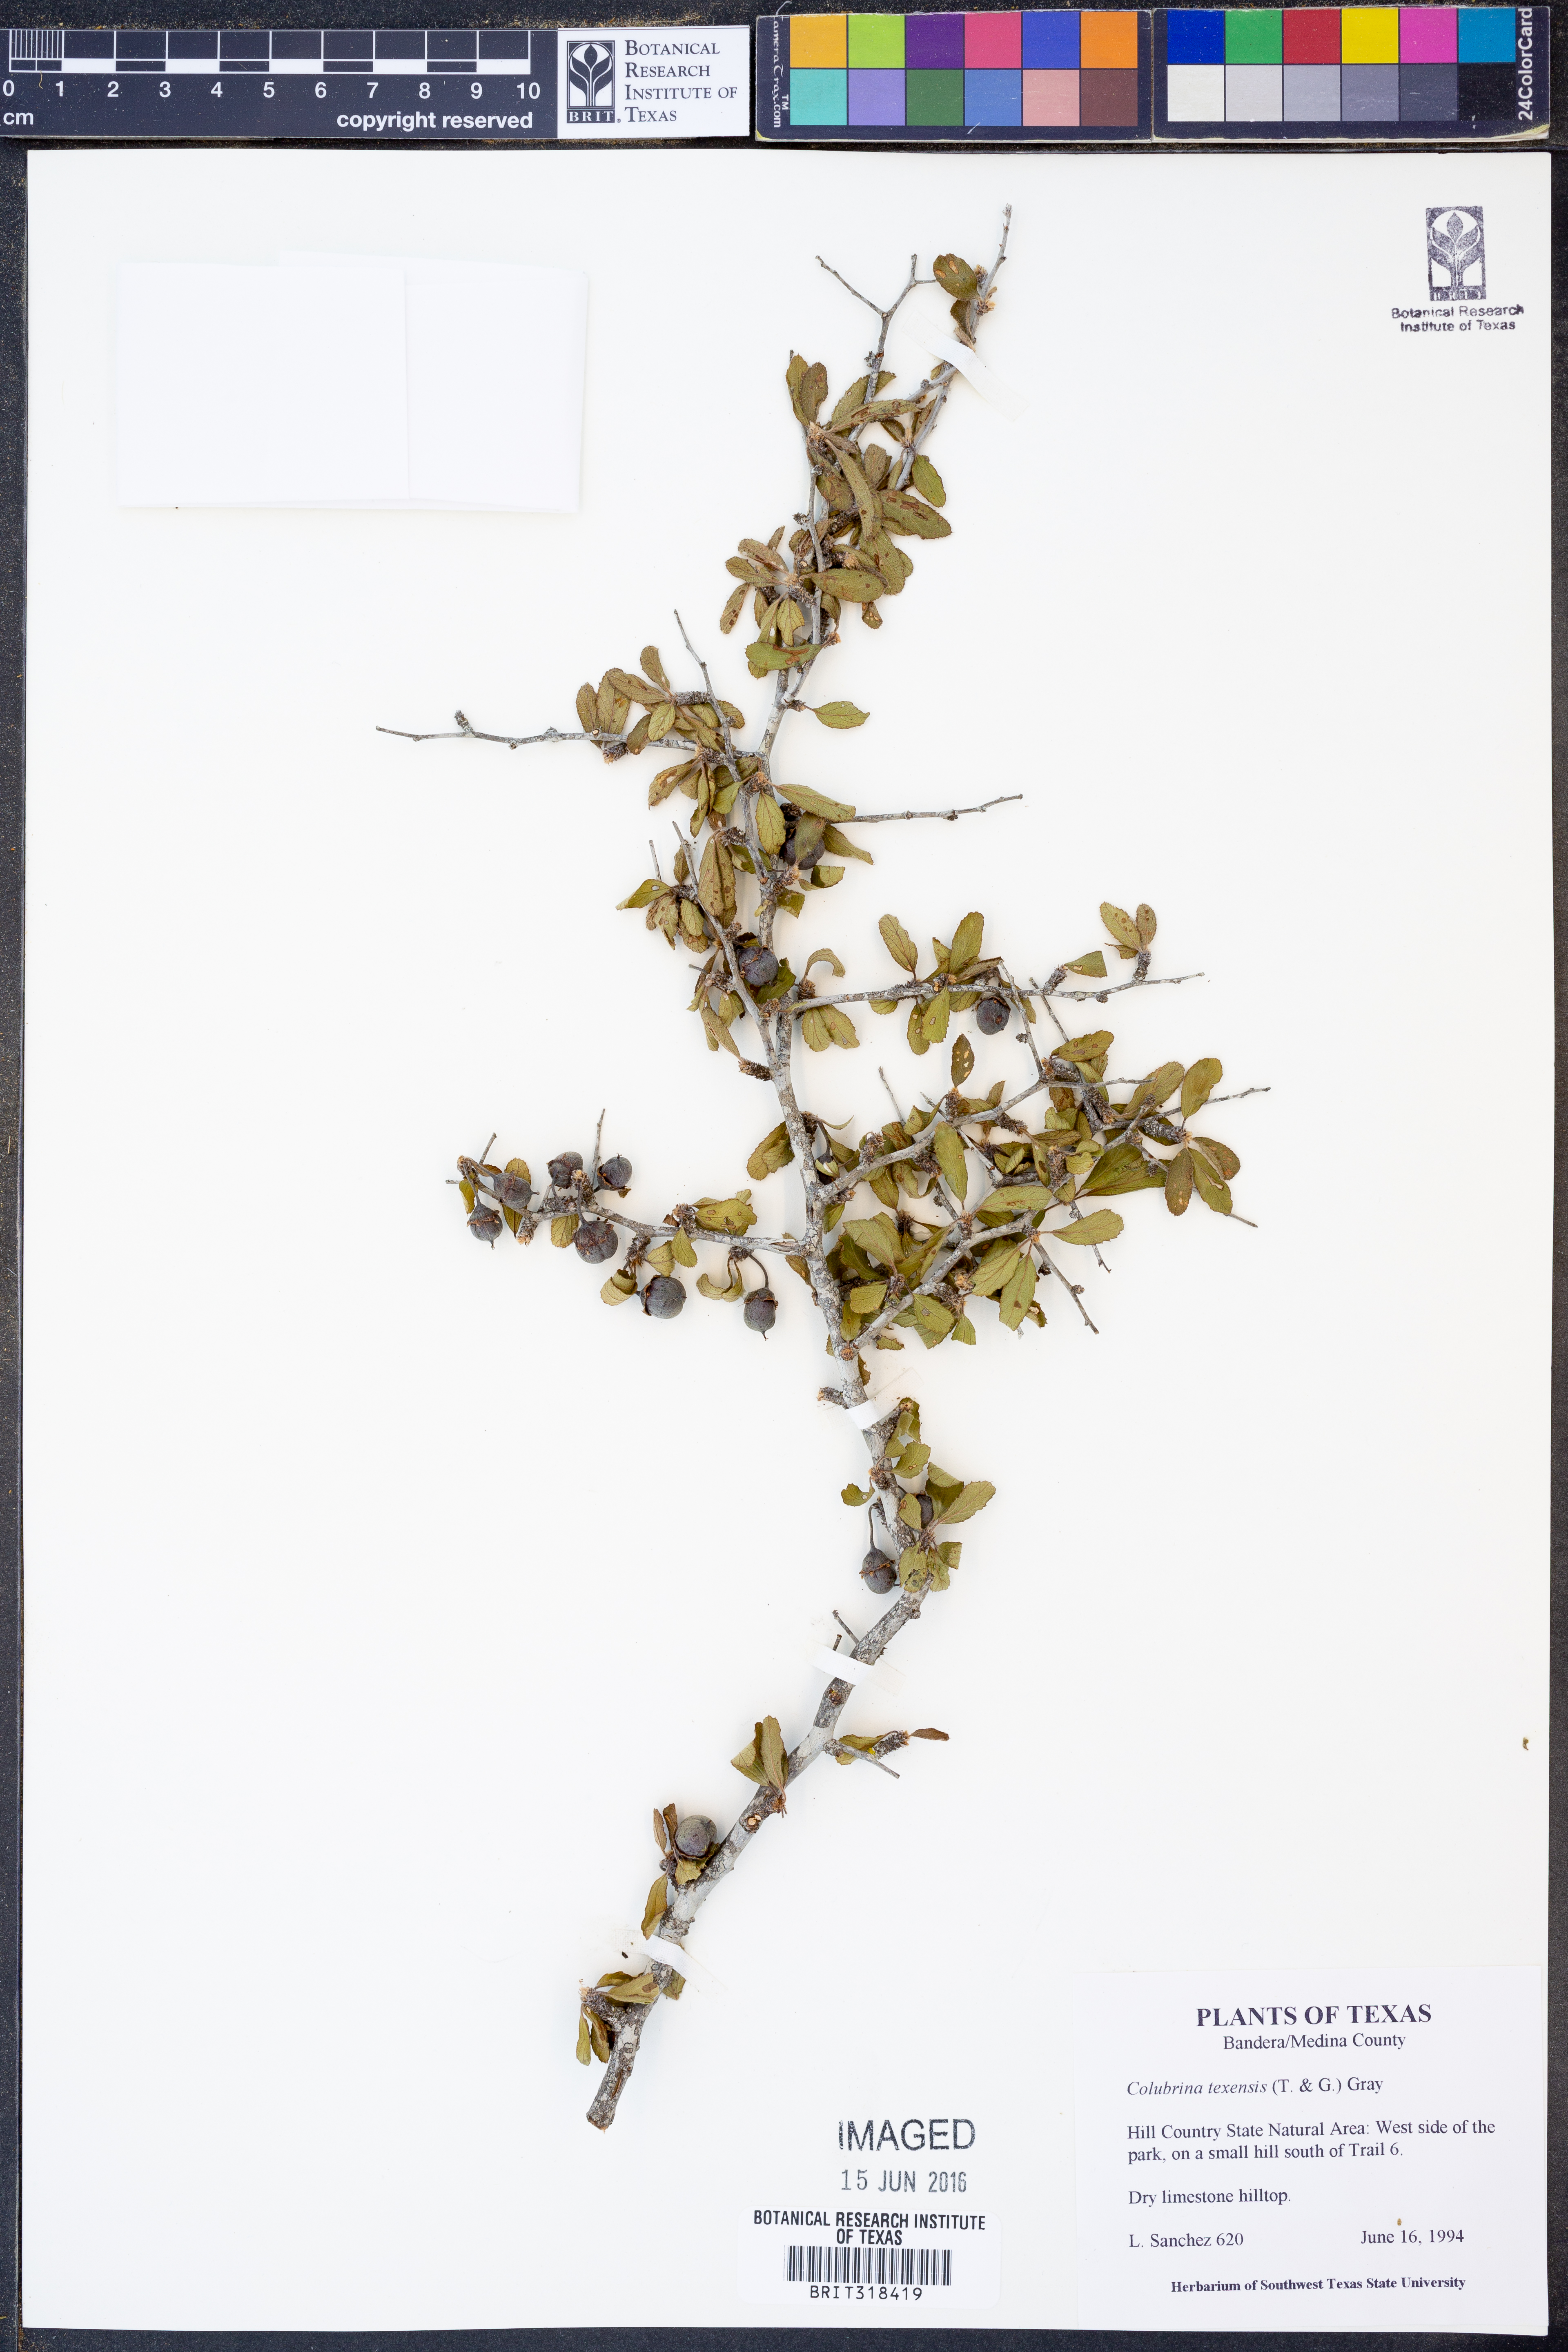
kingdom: Plantae
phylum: Tracheophyta
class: Magnoliopsida
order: Rosales
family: Rhamnaceae
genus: Colubrina
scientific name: Colubrina texensis
